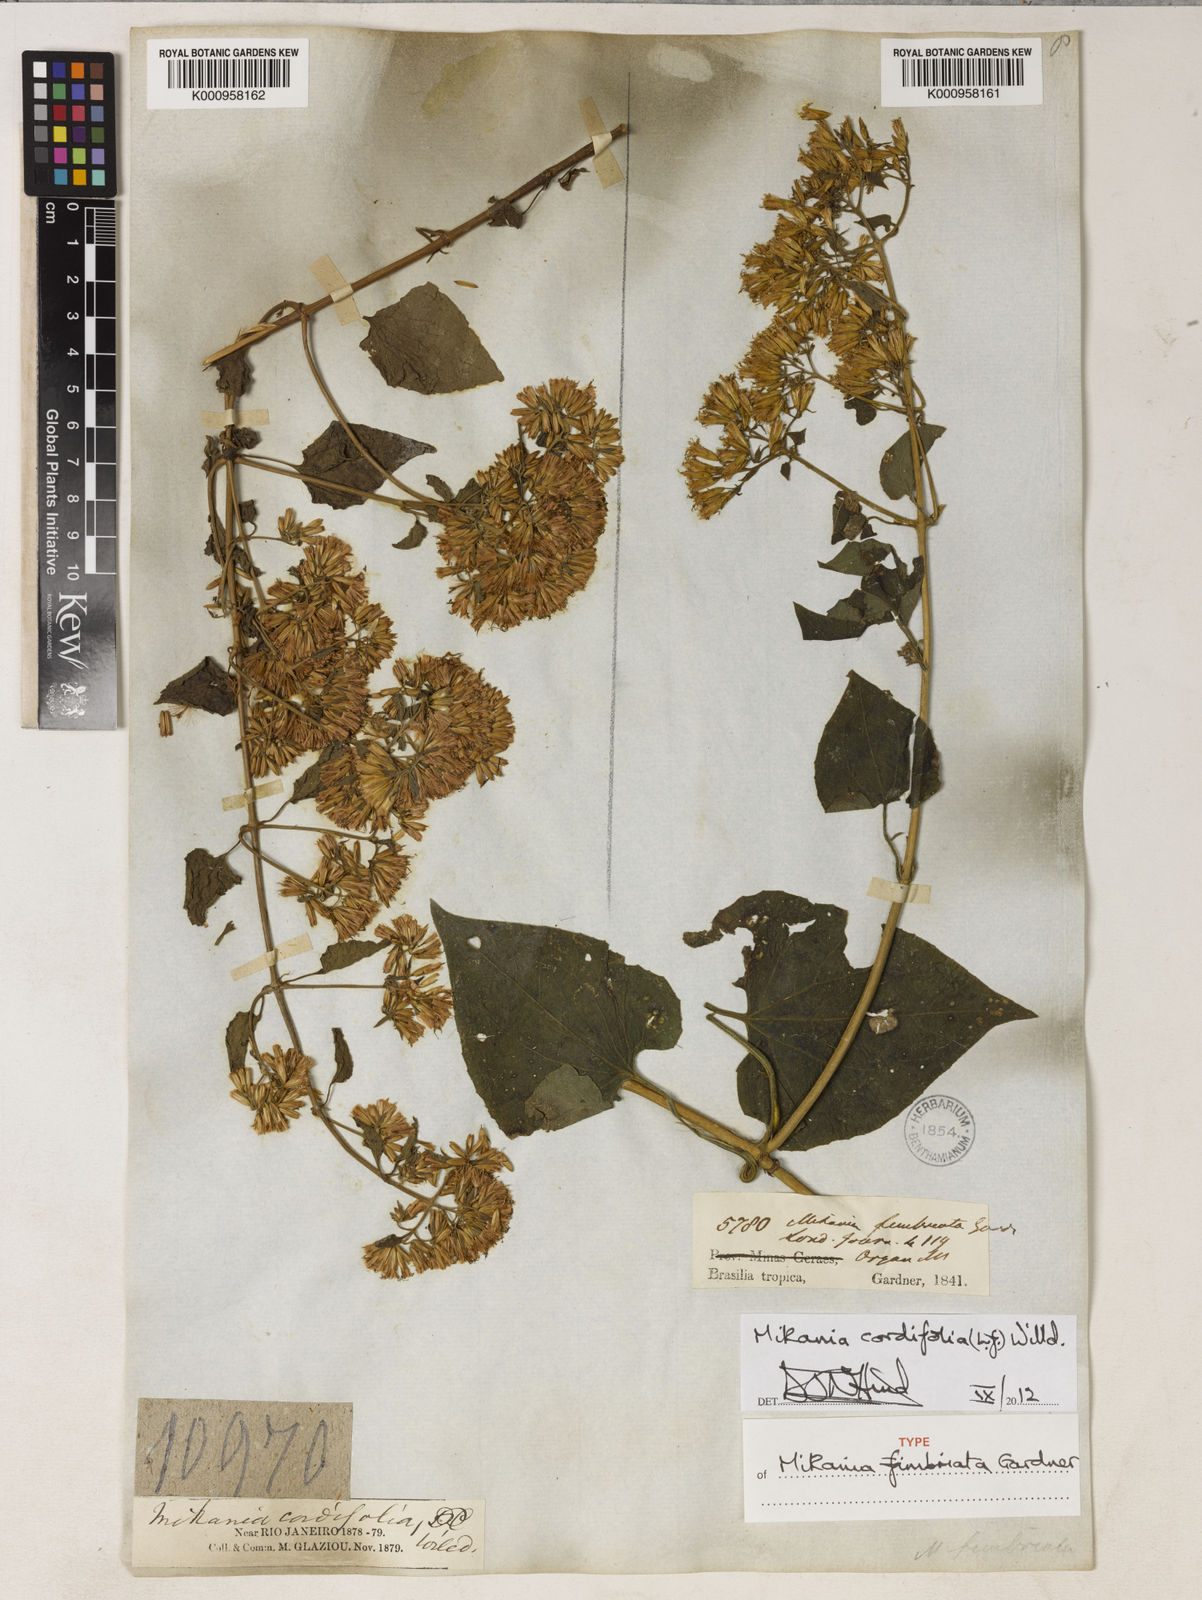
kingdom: Plantae
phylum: Tracheophyta
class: Magnoliopsida
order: Asterales
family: Asteraceae
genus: Mikania
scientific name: Mikania cordifolia
